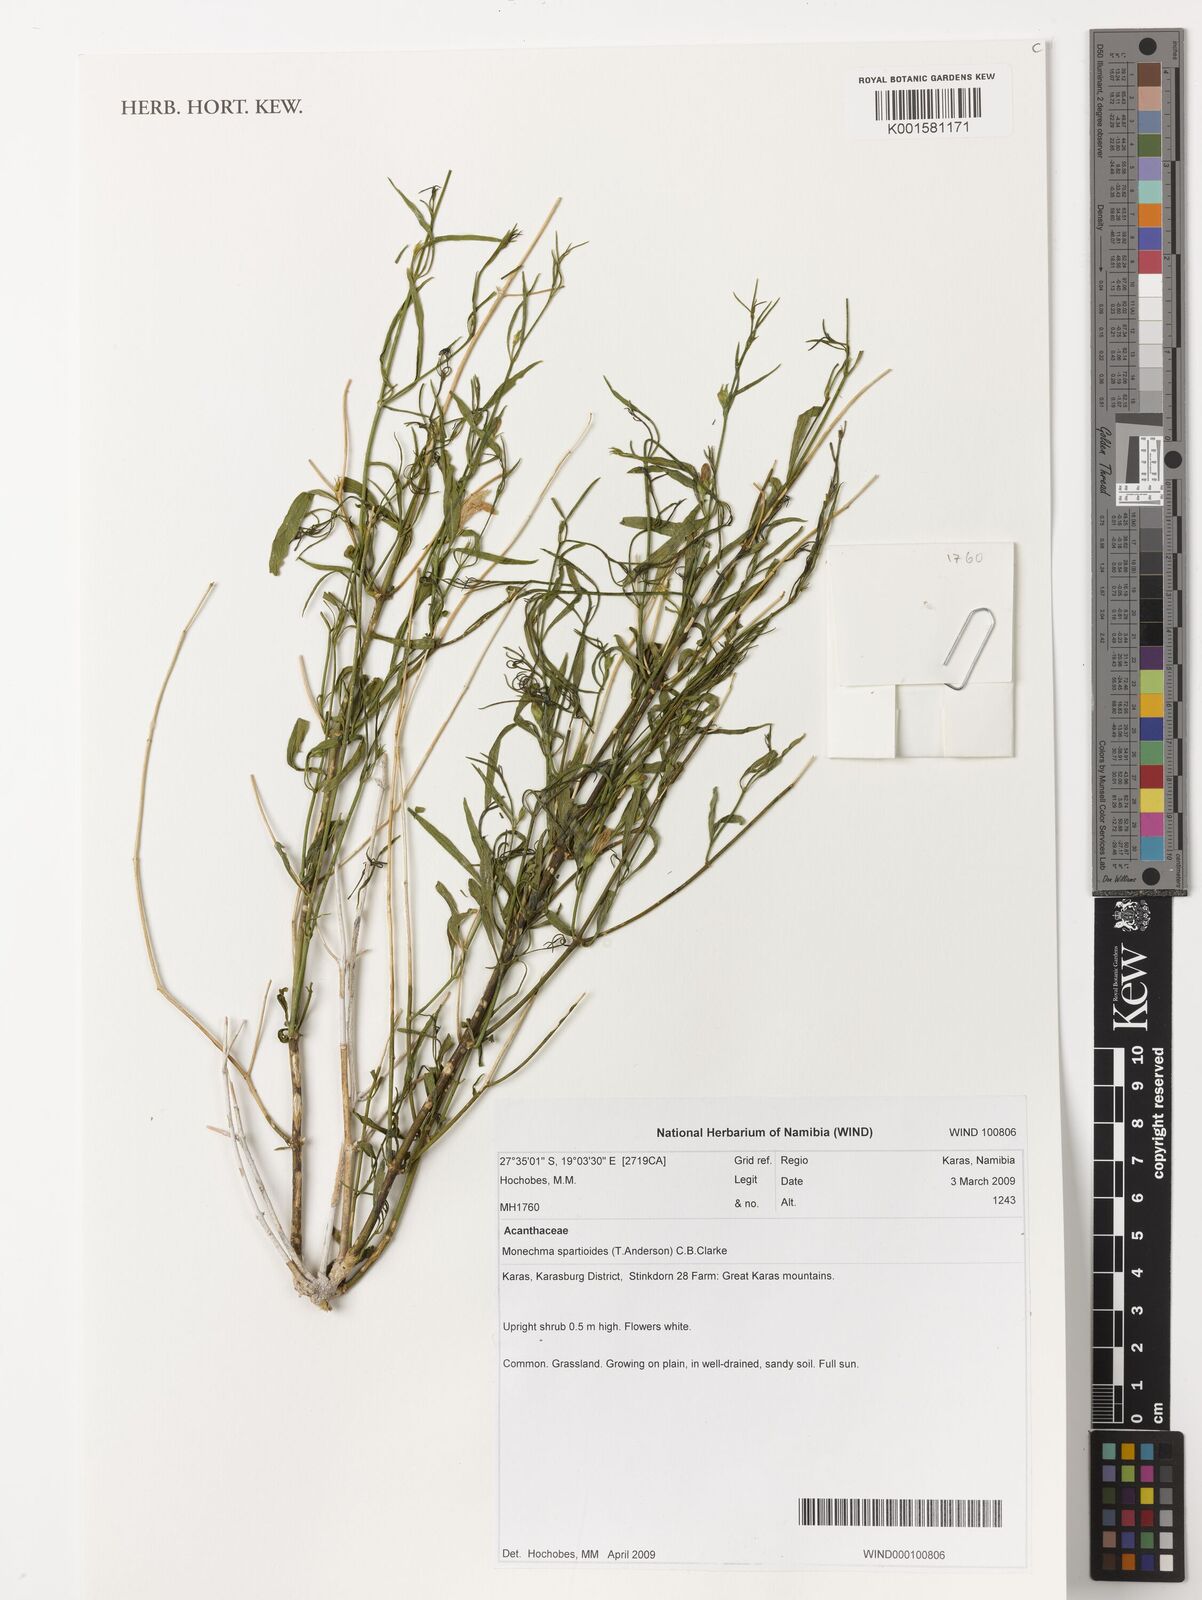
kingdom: Plantae
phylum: Tracheophyta
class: Magnoliopsida
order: Lamiales
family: Acanthaceae
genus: Monechma
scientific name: Monechma spartioides
